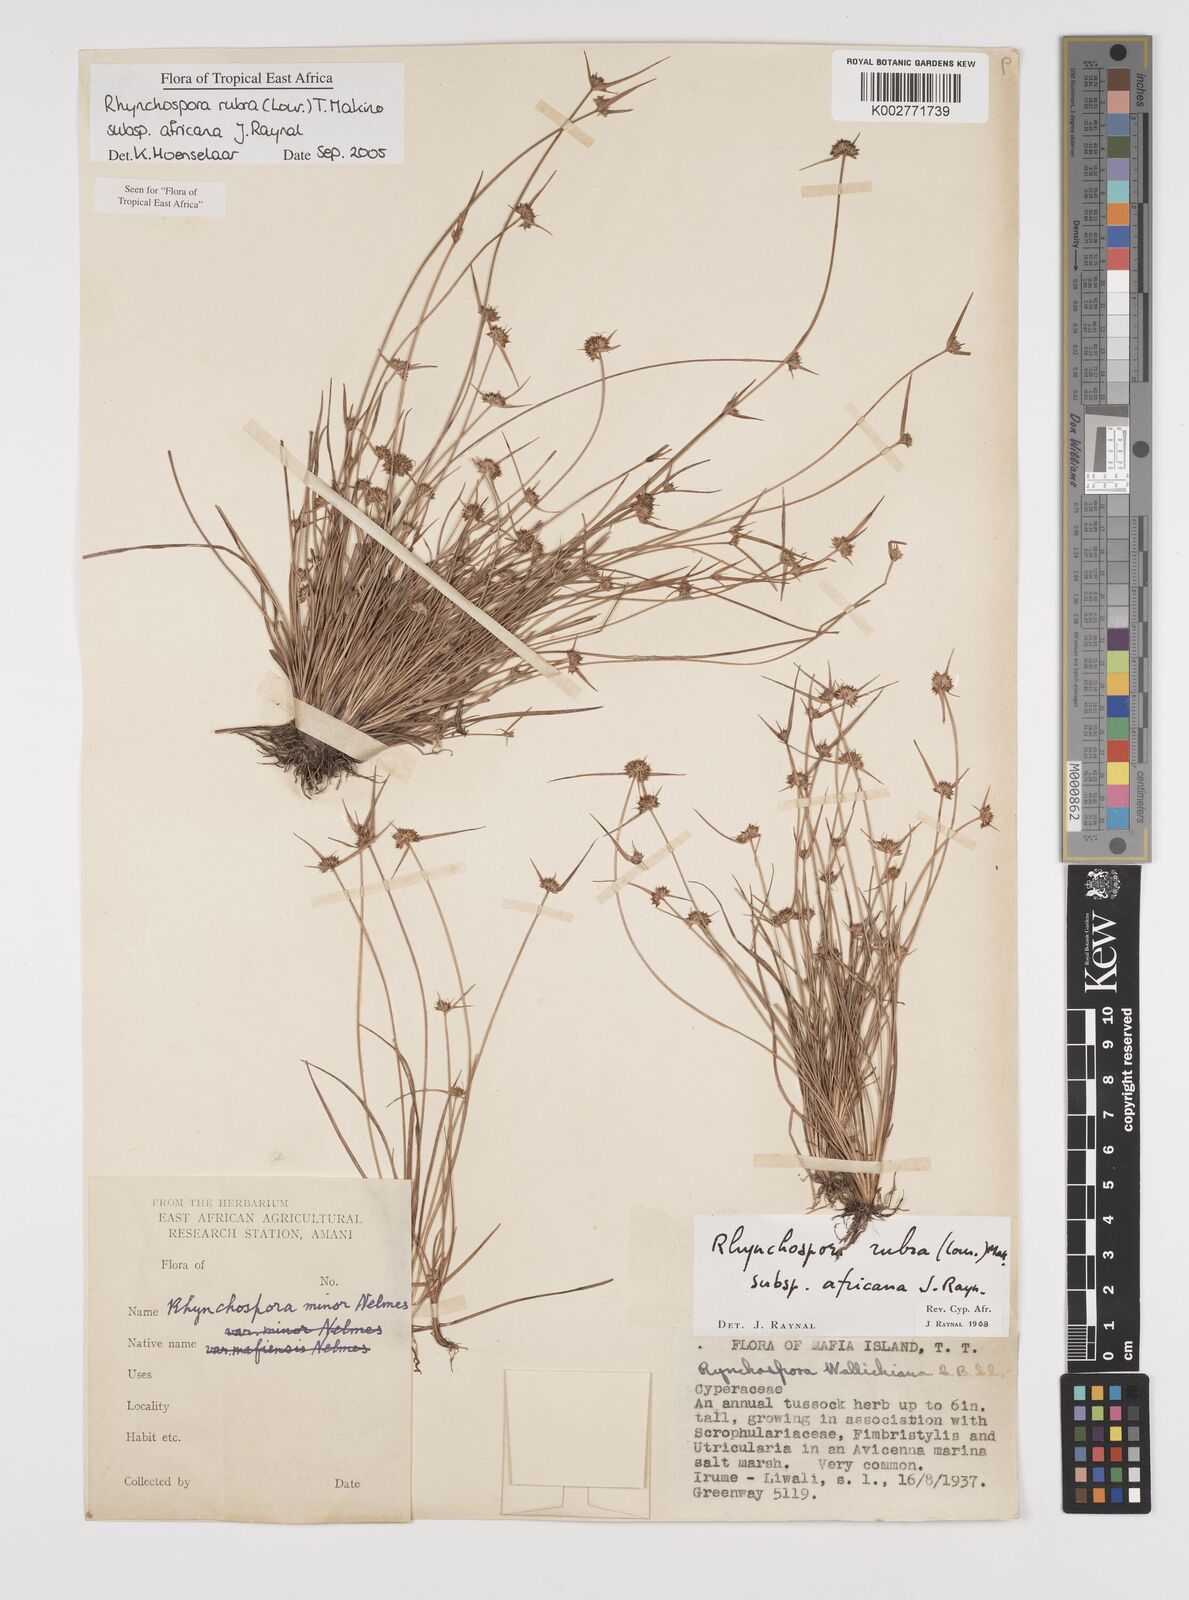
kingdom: Plantae
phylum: Tracheophyta
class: Liliopsida
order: Poales
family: Cyperaceae
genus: Rhynchospora
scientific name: Rhynchospora rubra
